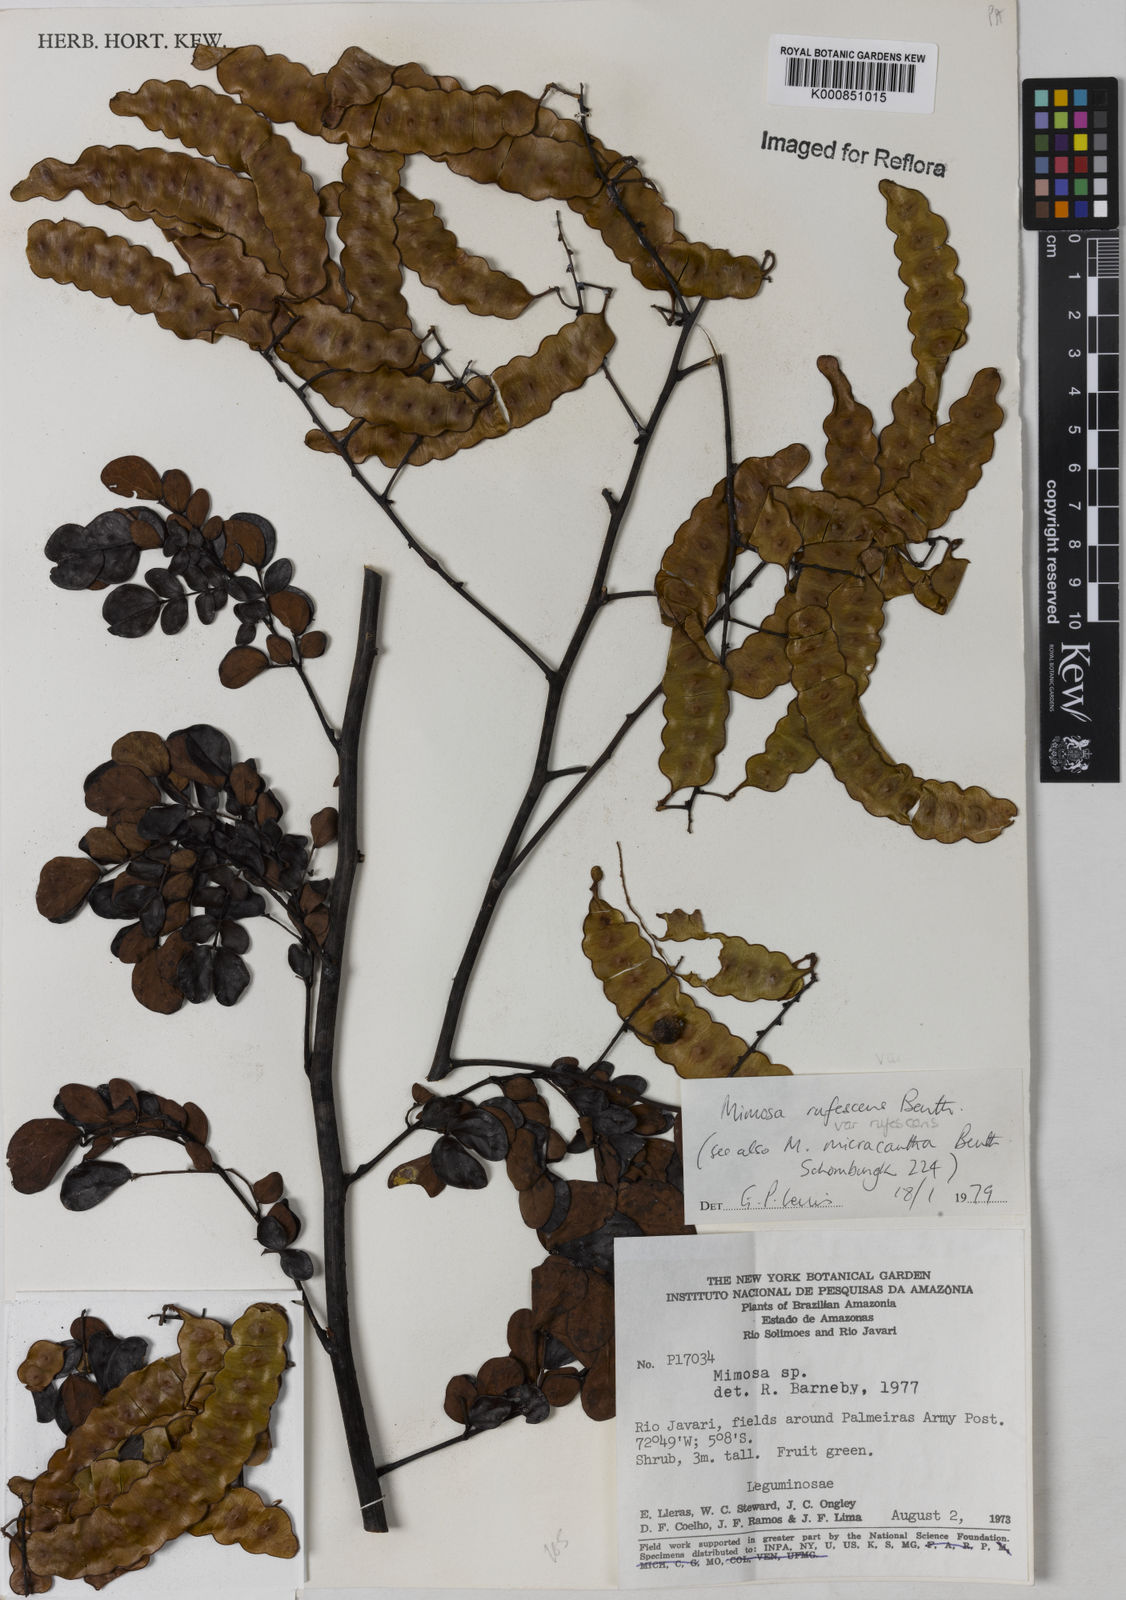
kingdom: Plantae
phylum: Tracheophyta
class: Magnoliopsida
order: Fabales
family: Fabaceae
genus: Mimosa
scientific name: Mimosa rufescens
